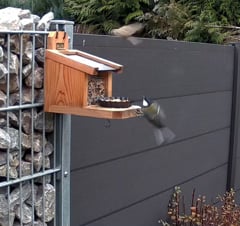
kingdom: Animalia
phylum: Chordata
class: Aves
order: Passeriformes
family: Paridae
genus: Poecile
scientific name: Poecile montanus
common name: Willow tit
